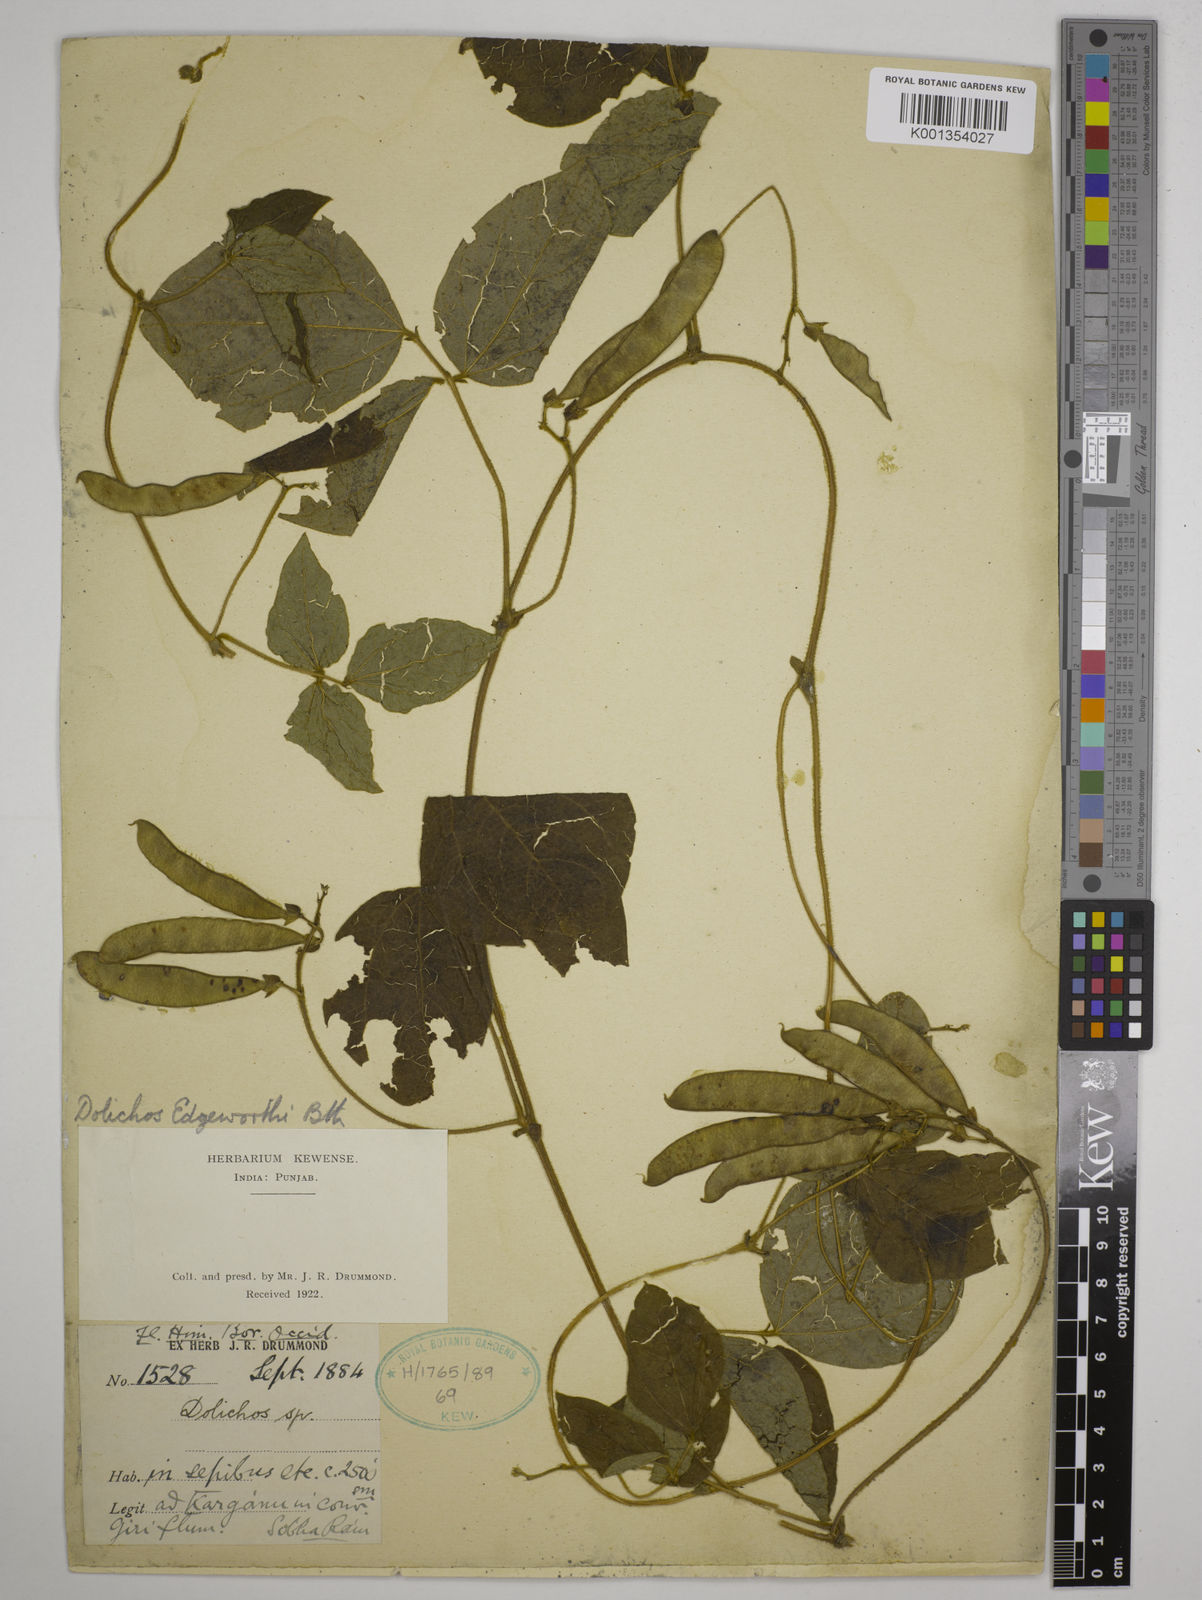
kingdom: Plantae
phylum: Tracheophyta
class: Magnoliopsida
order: Fabales
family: Fabaceae
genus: Dolichos
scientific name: Dolichos
